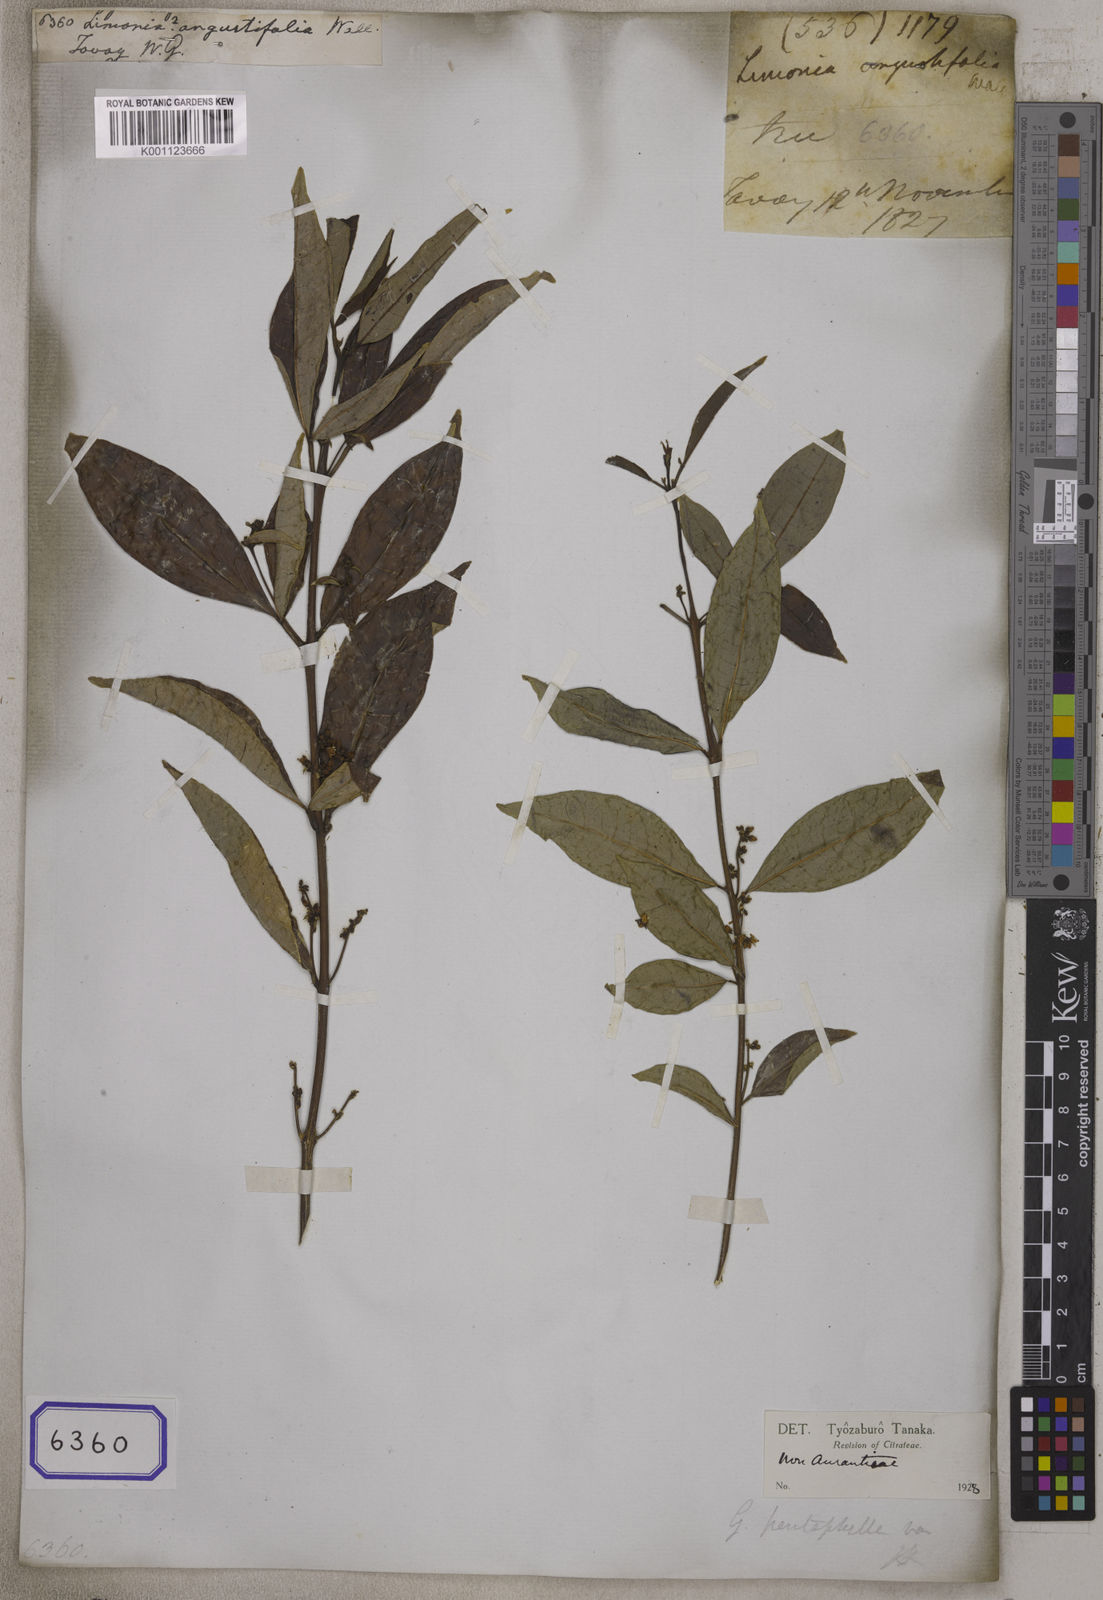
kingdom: Plantae
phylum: Tracheophyta
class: Magnoliopsida
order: Sapindales
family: Rutaceae
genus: Glycosmis
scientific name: Glycosmis pentaphylla
